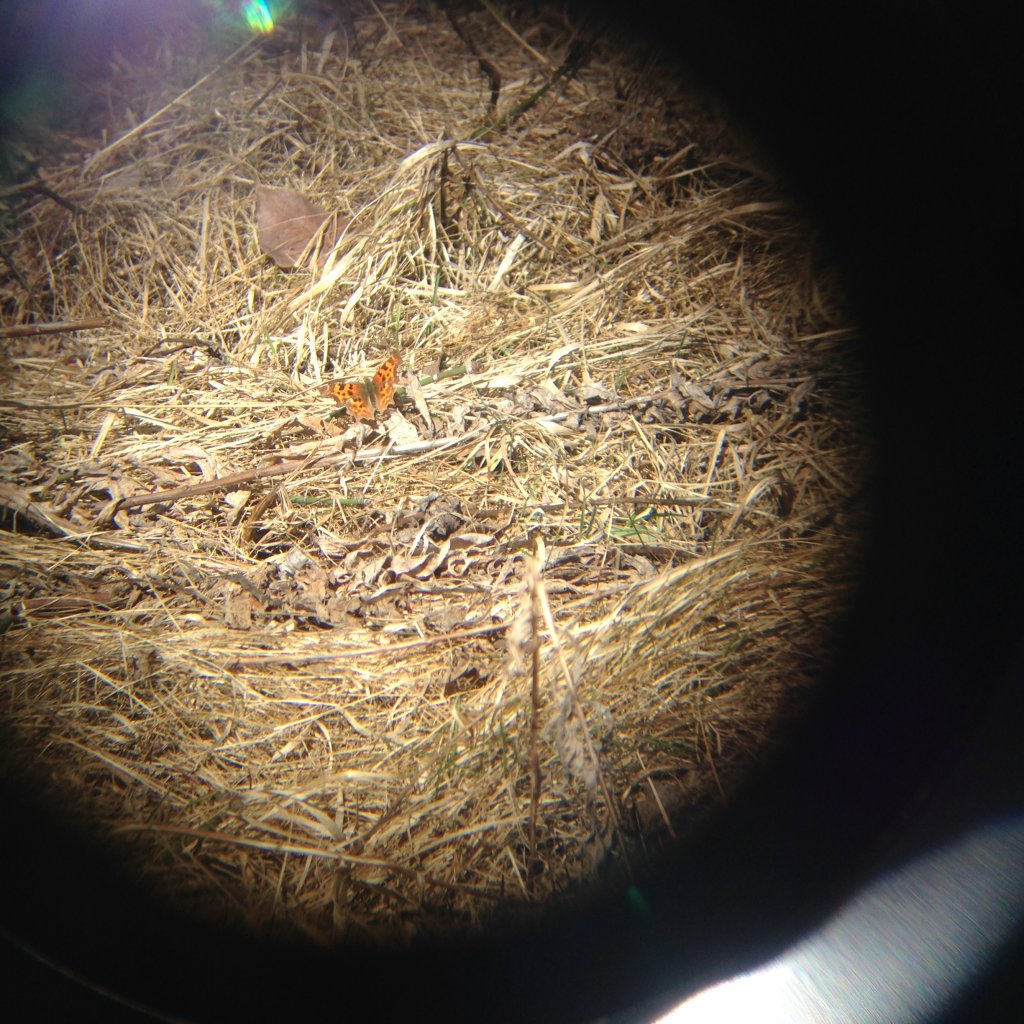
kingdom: Animalia
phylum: Arthropoda
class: Insecta
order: Lepidoptera
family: Nymphalidae
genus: Polygonia
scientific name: Polygonia faunus
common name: Green Comma
